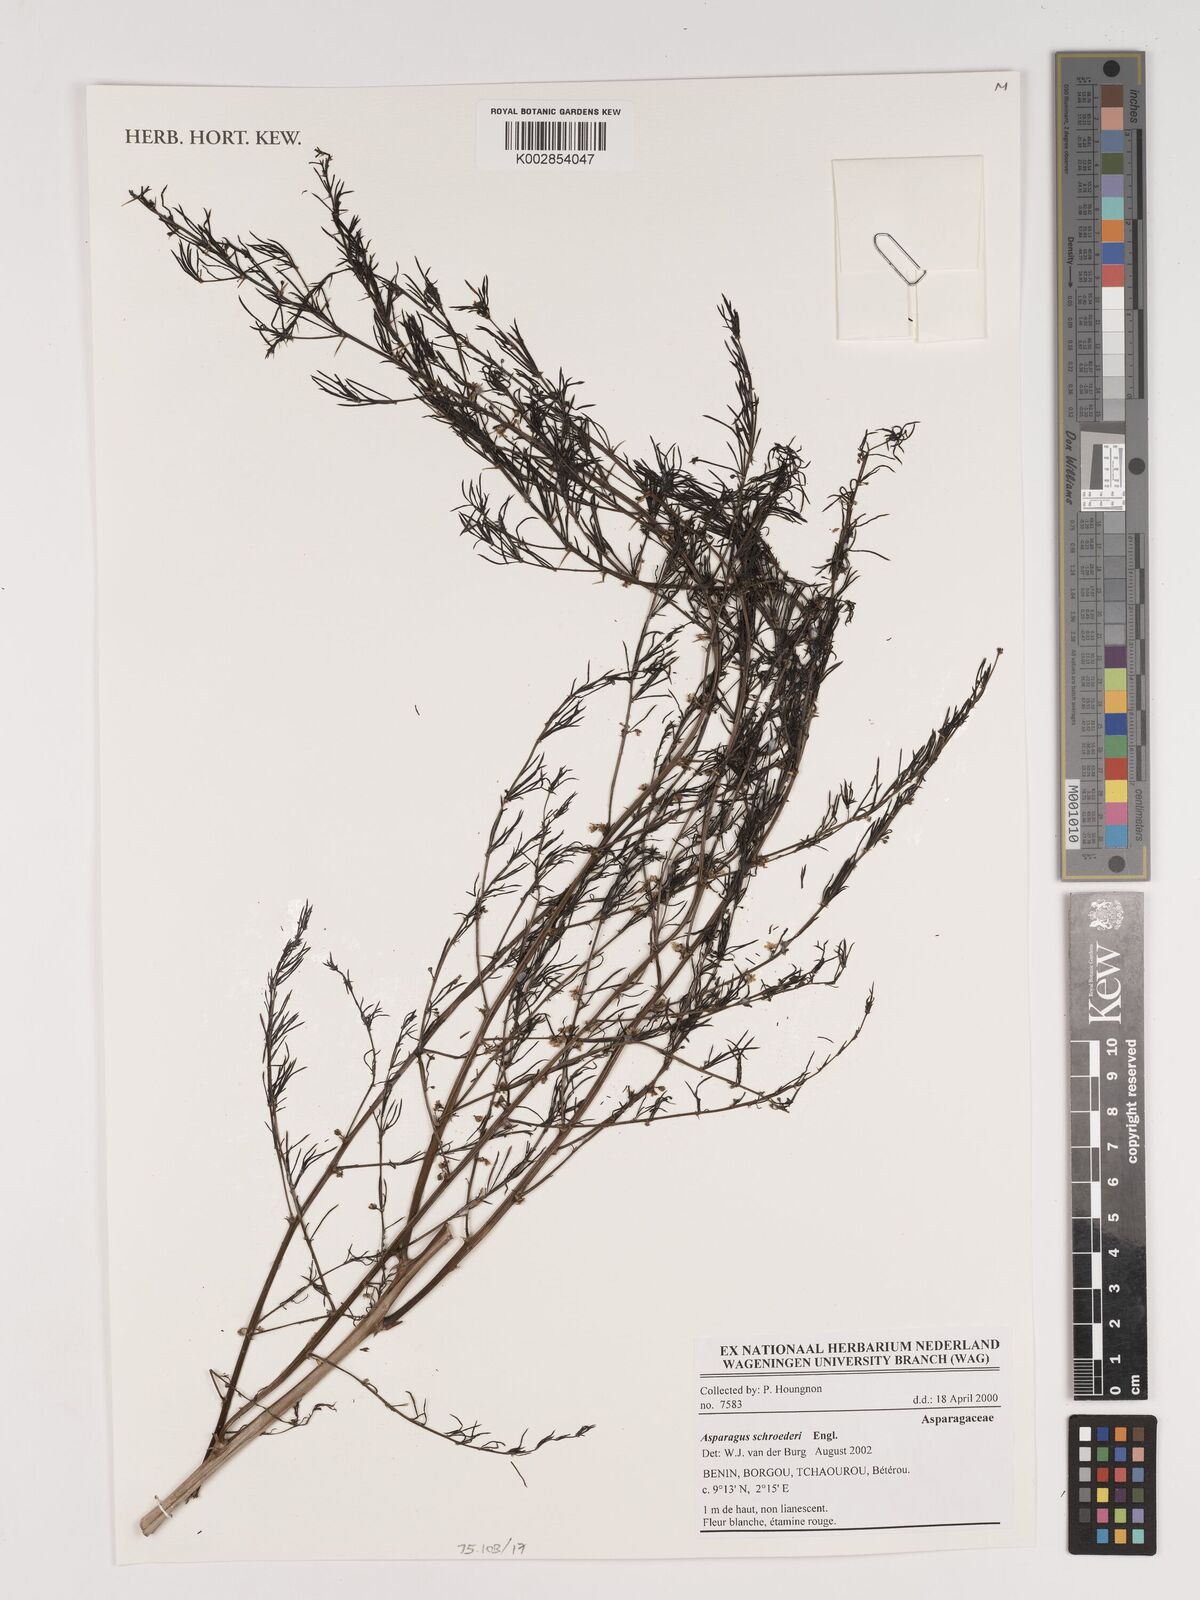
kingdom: Plantae
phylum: Tracheophyta
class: Liliopsida
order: Asparagales
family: Asparagaceae
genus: Asparagus
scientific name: Asparagus schroederi
